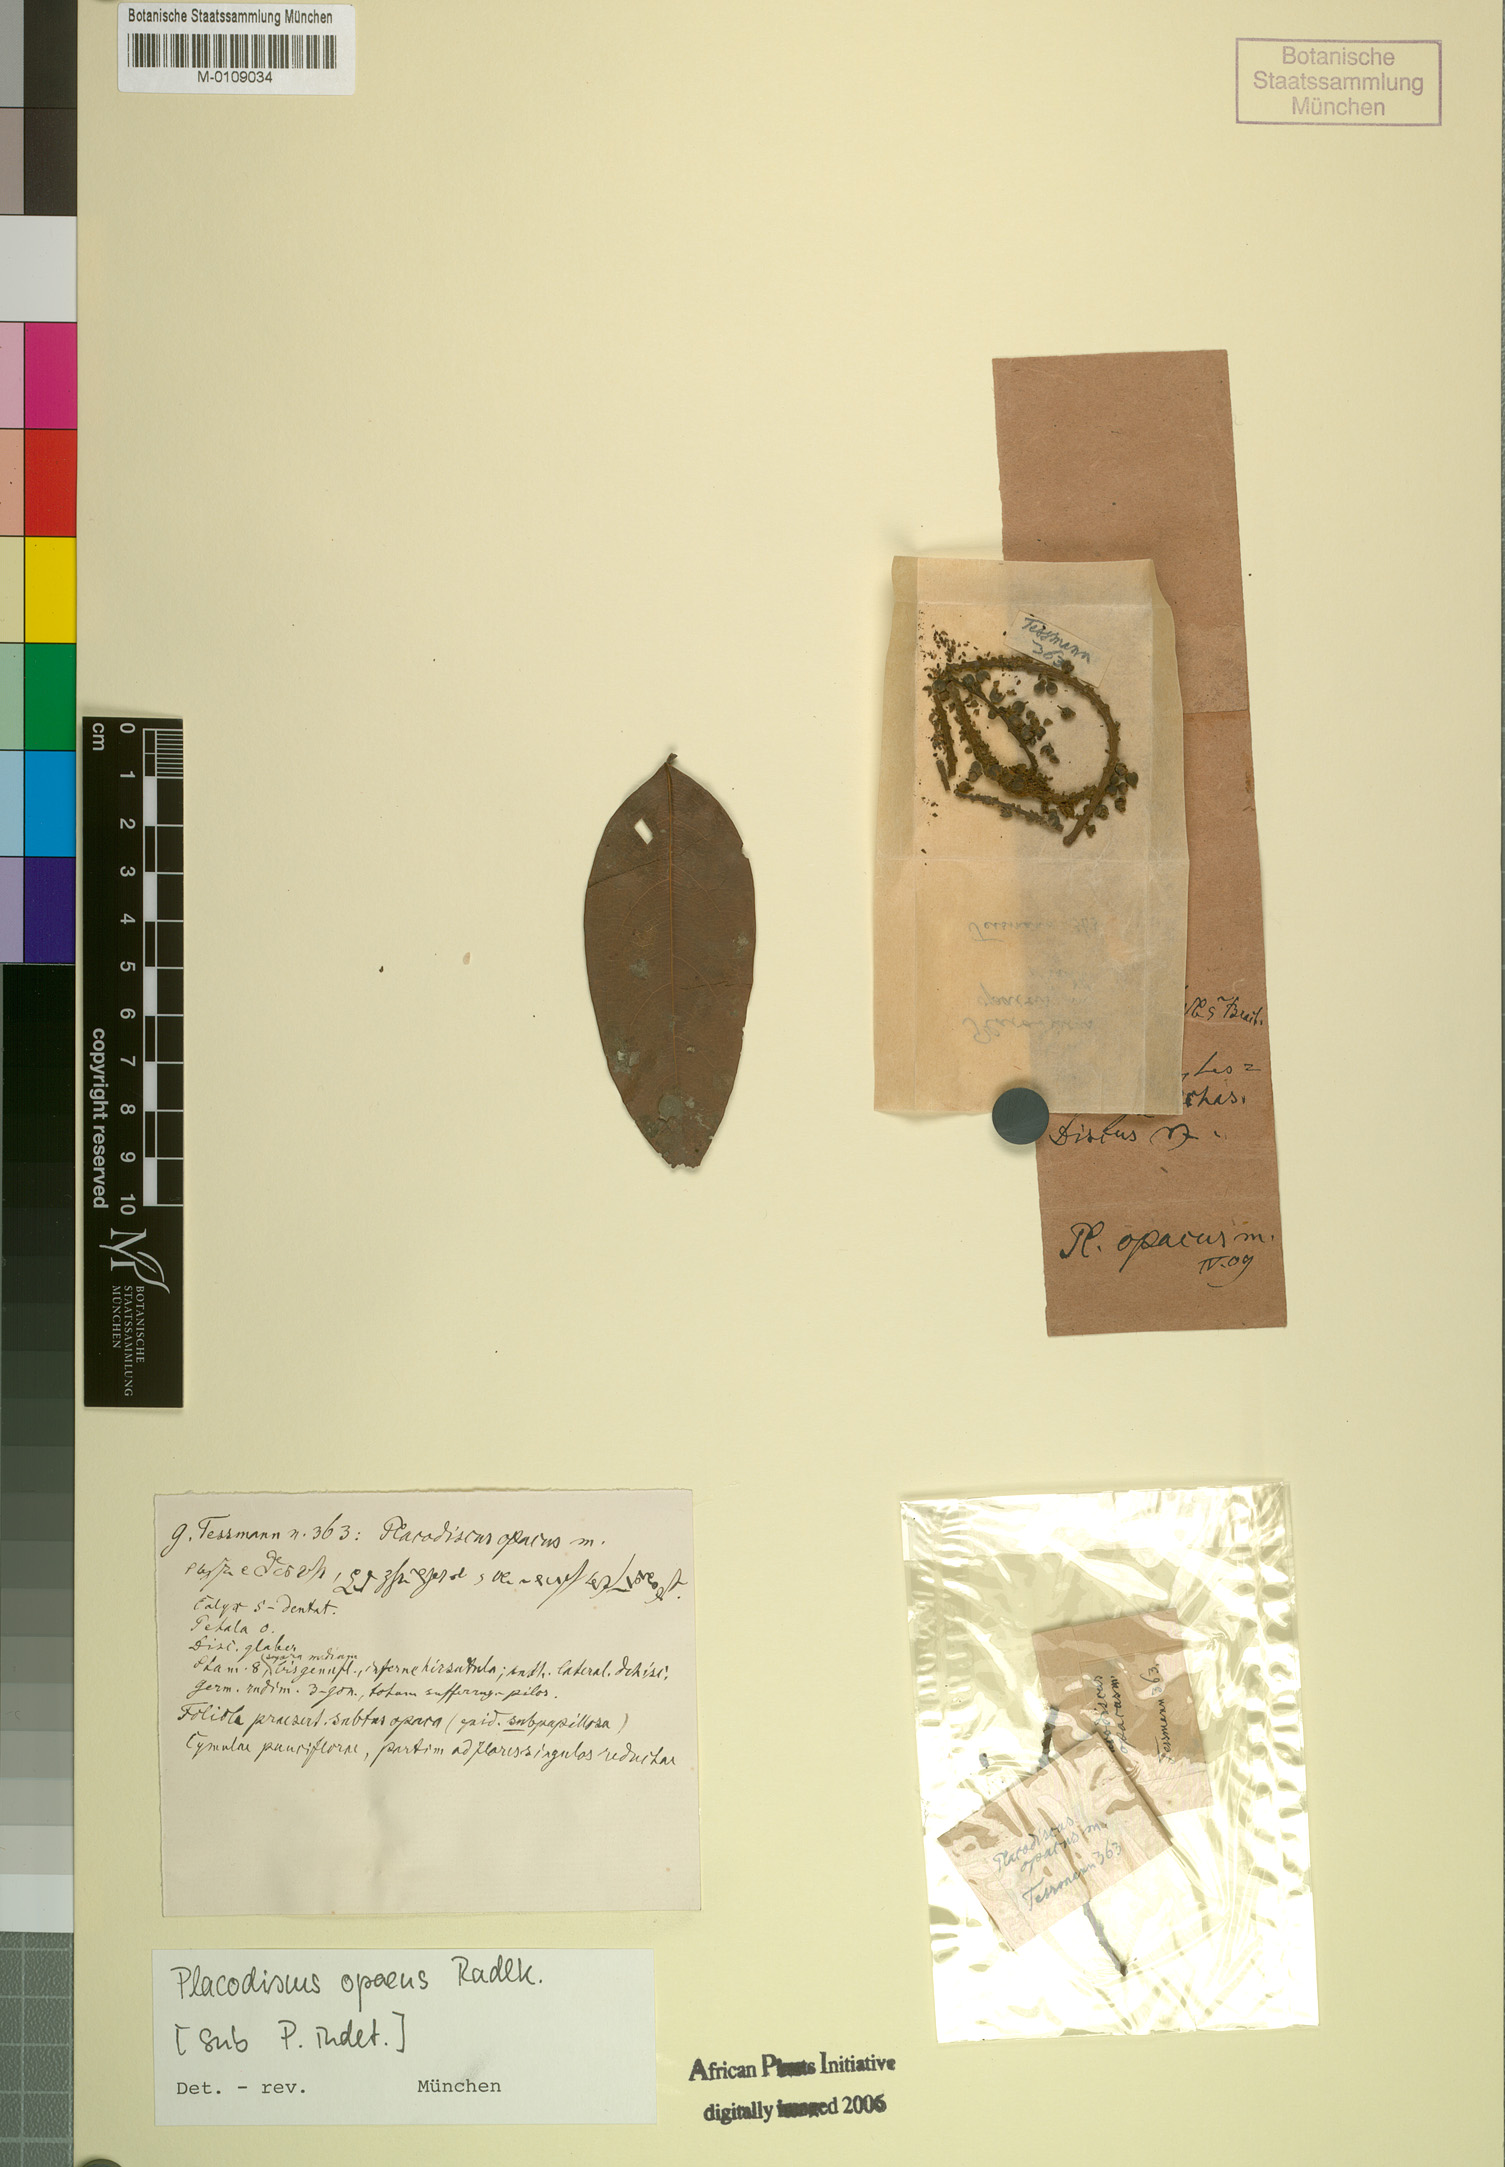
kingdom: Plantae
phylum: Tracheophyta
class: Magnoliopsida
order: Sapindales
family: Sapindaceae
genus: Placodiscus
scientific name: Placodiscus opacus
